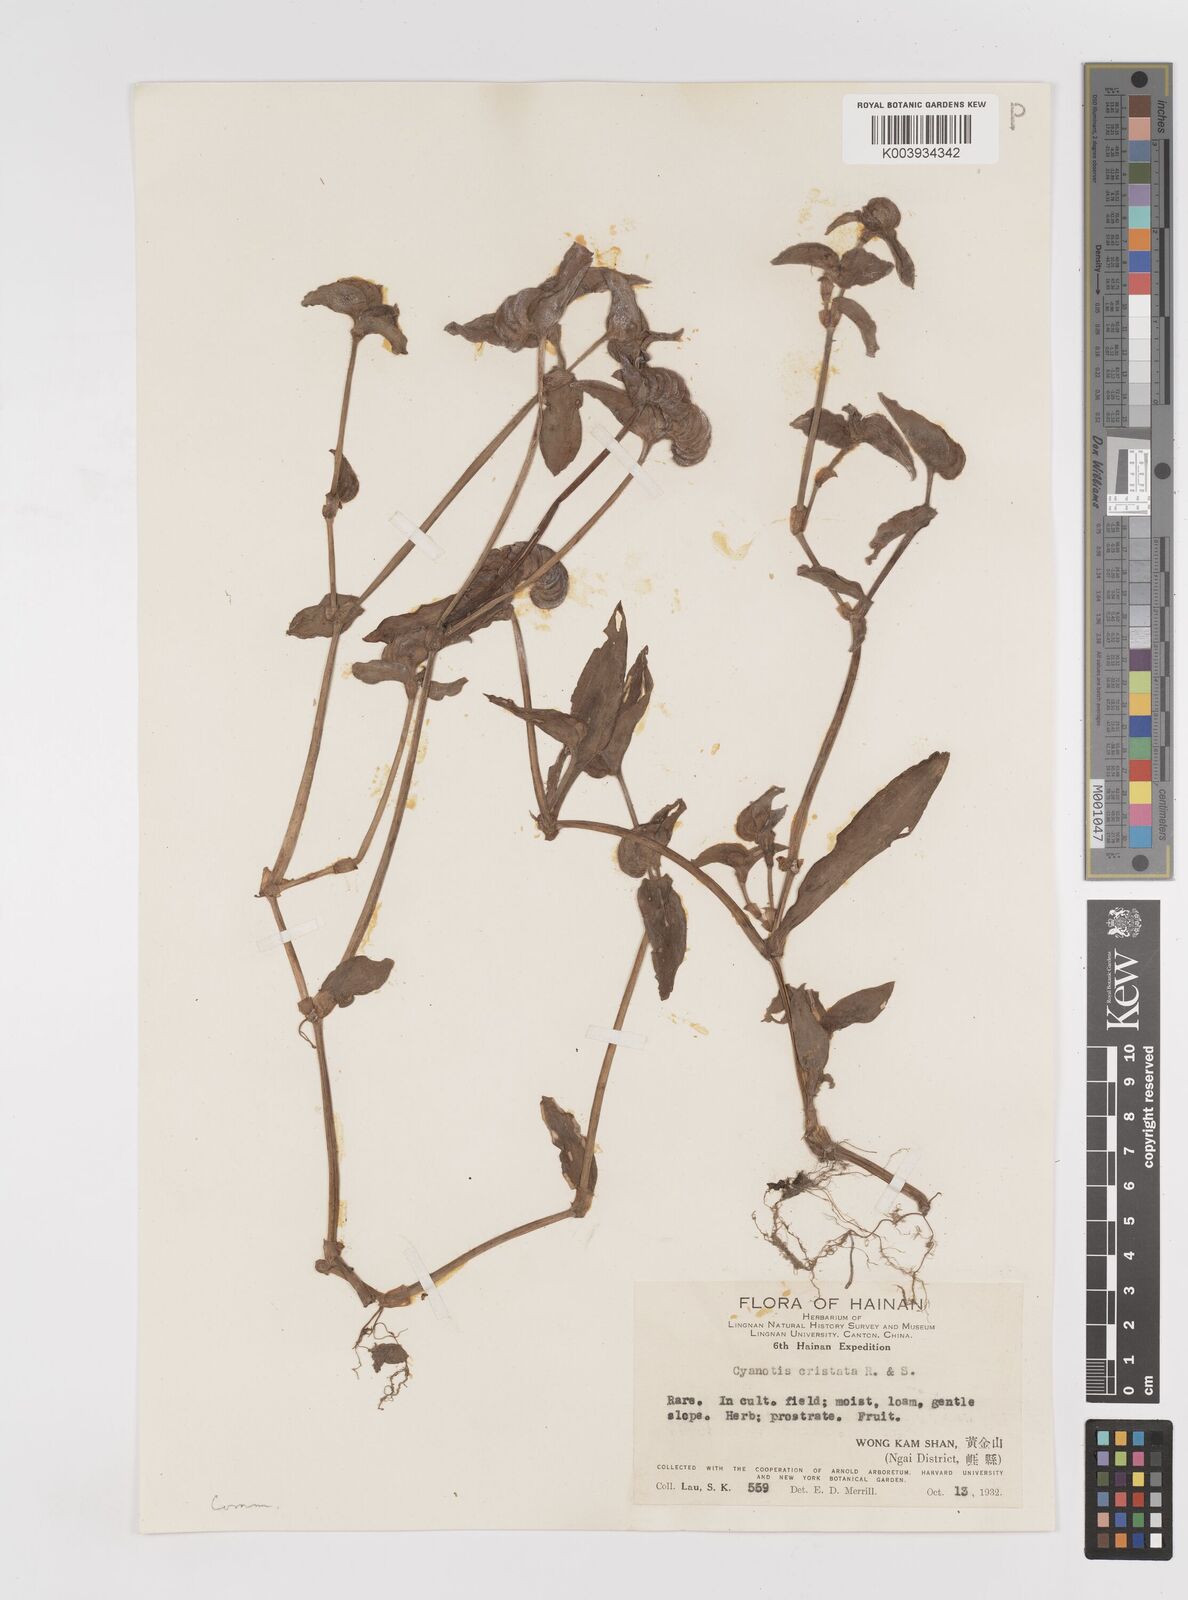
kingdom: Plantae
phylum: Tracheophyta
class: Liliopsida
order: Commelinales
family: Commelinaceae
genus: Cyanotis
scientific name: Cyanotis cristata
